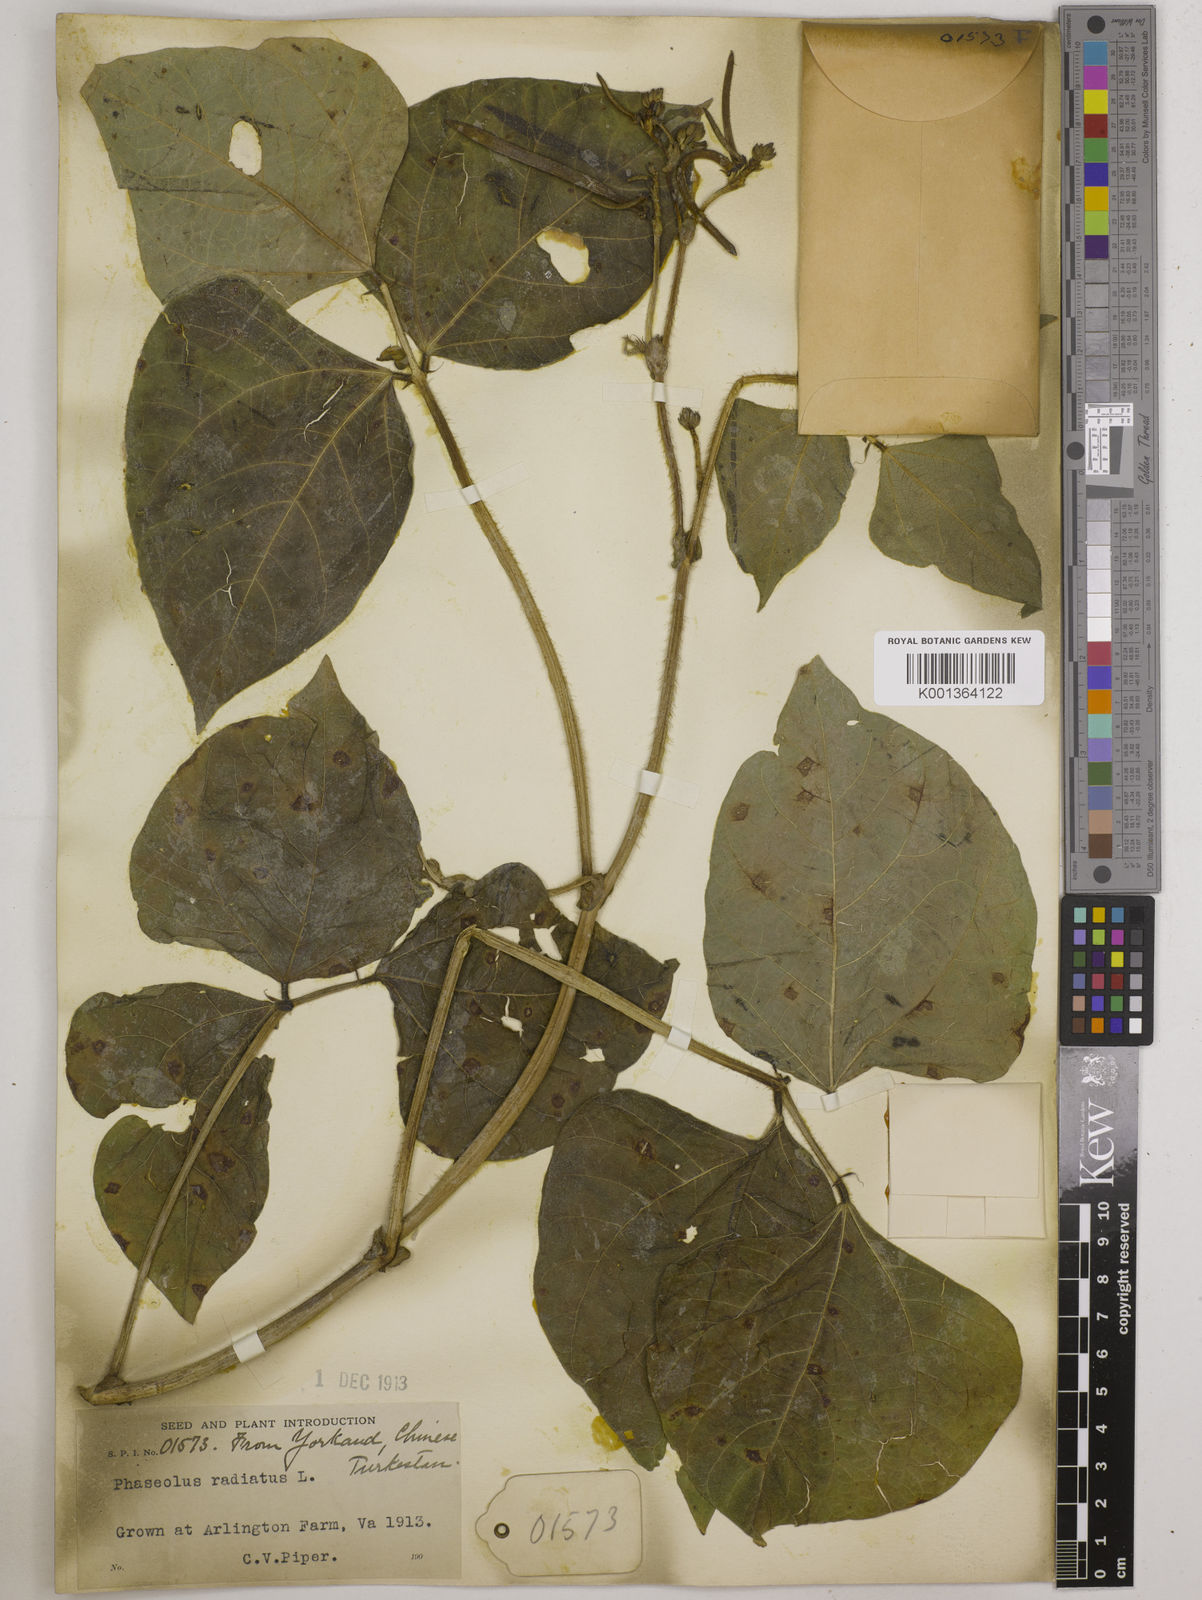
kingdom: Plantae
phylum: Tracheophyta
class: Magnoliopsida
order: Fabales
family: Fabaceae
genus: Vigna
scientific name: Vigna radiata
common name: Mung-bean
